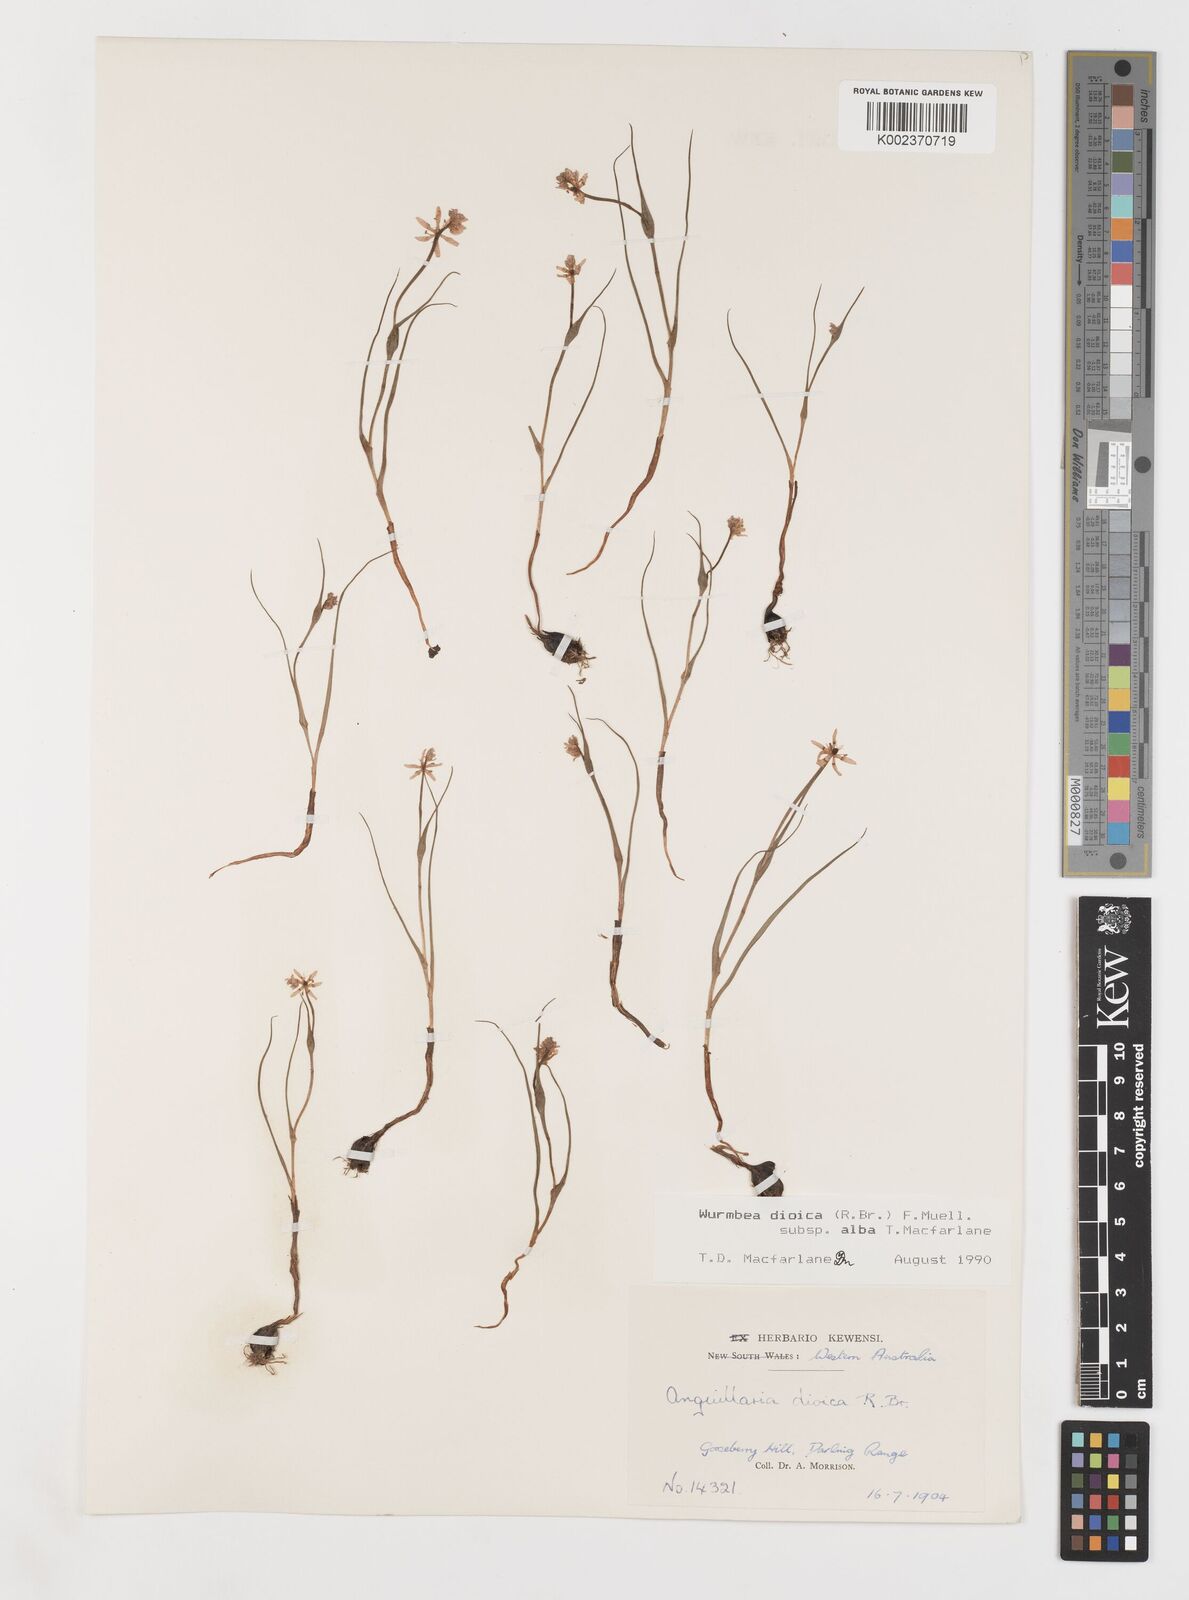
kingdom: Plantae
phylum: Tracheophyta
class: Liliopsida
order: Liliales
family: Colchicaceae
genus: Wurmbea
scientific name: Wurmbea dioica
